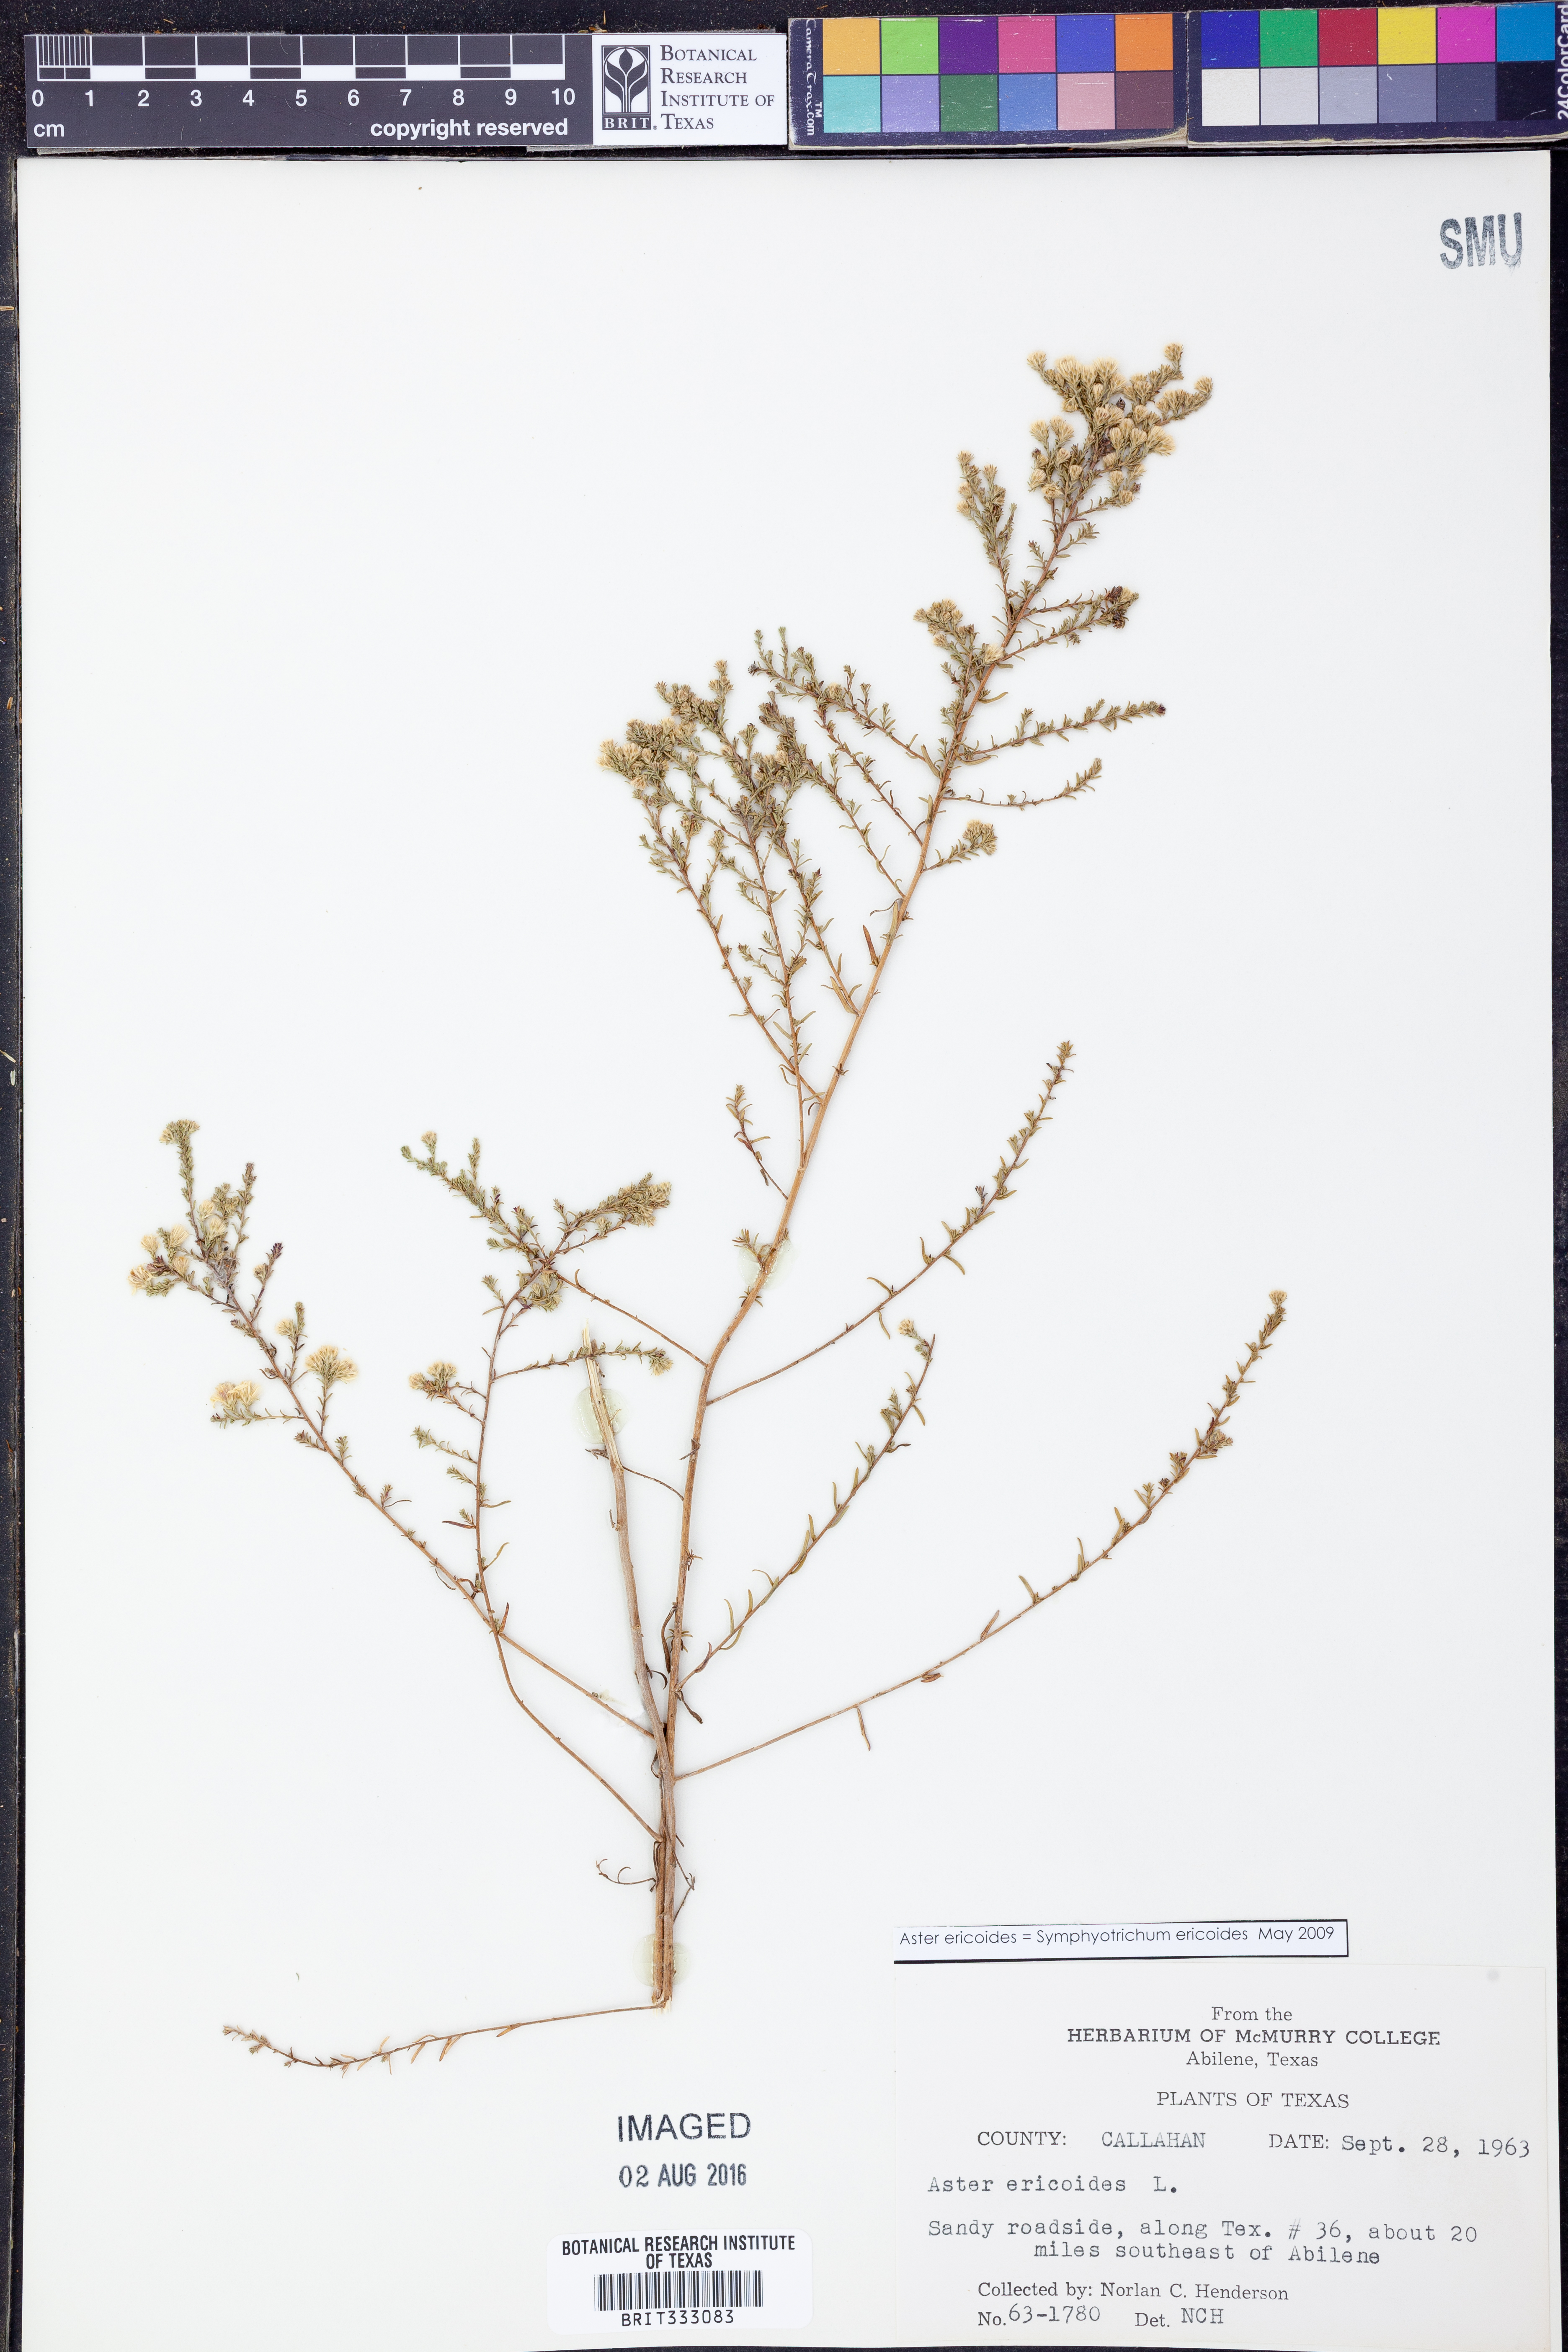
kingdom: Plantae
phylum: Tracheophyta
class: Magnoliopsida
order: Asterales
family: Asteraceae
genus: Symphyotrichum
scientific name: Symphyotrichum ericoides
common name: Heath aster
